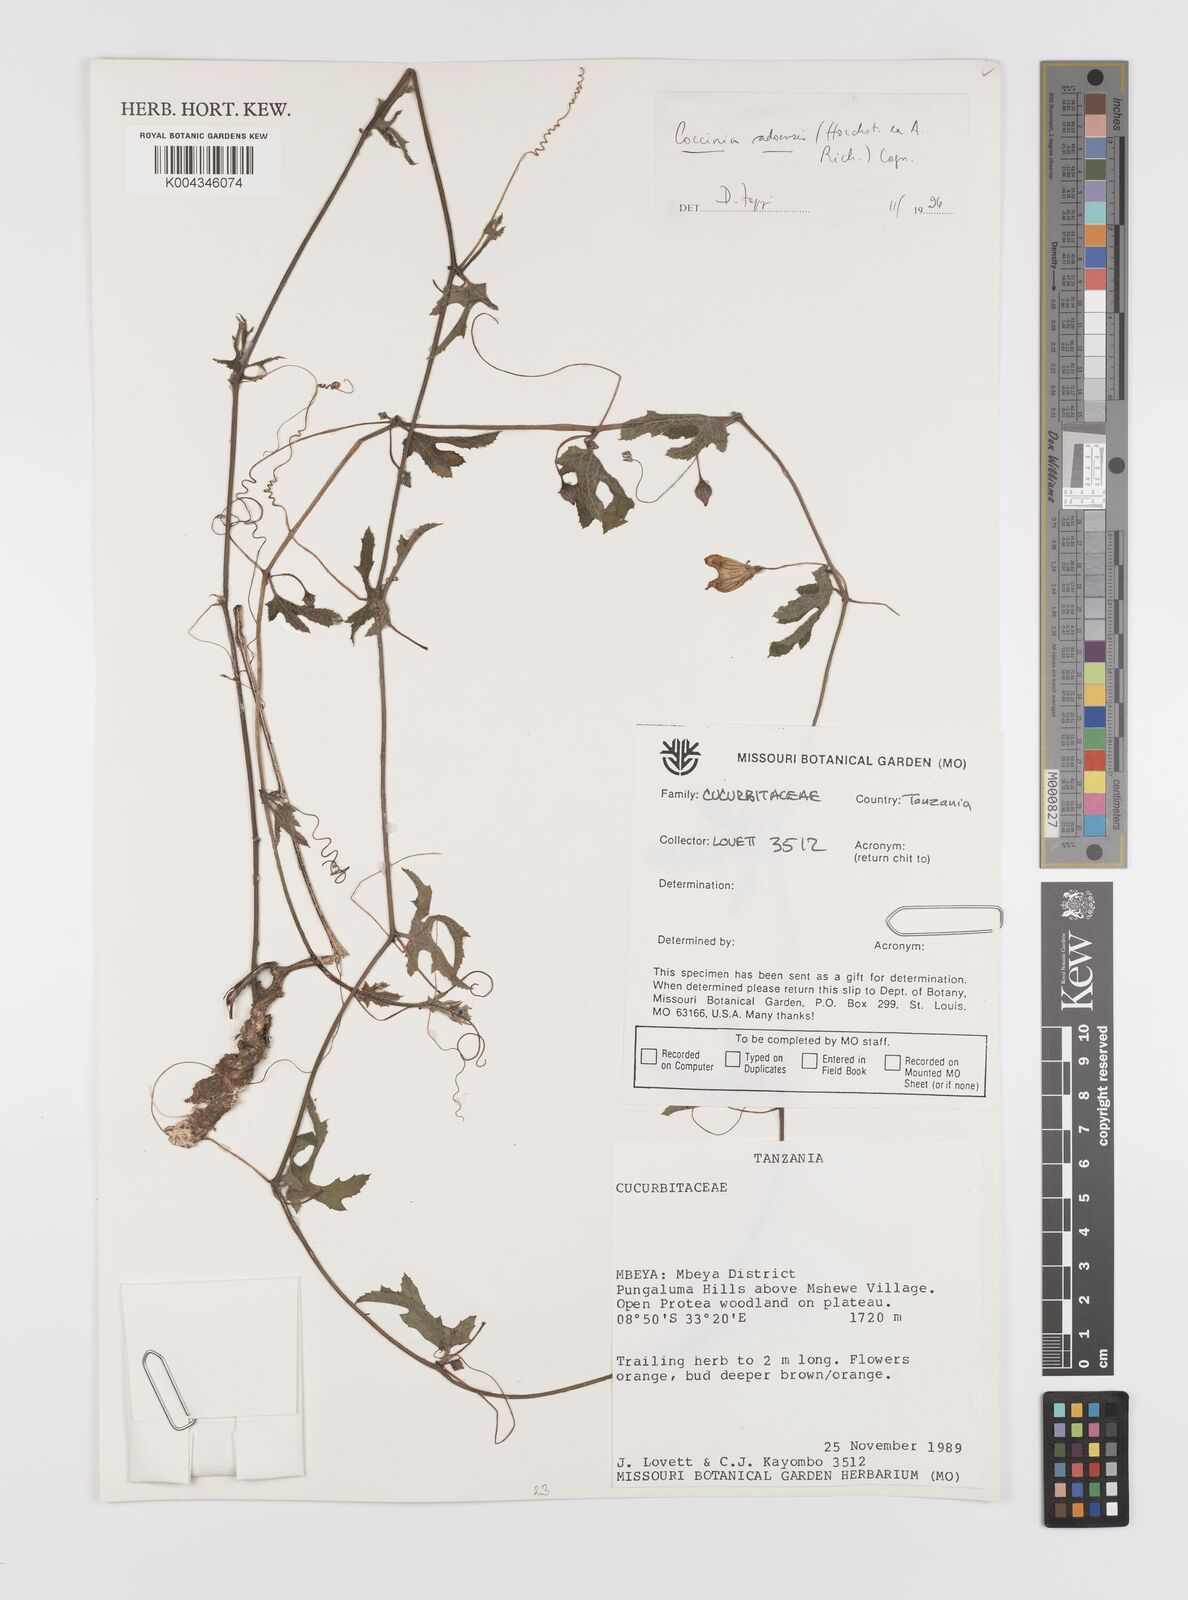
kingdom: Plantae
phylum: Tracheophyta
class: Magnoliopsida
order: Cucurbitales
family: Cucurbitaceae
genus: Coccinia
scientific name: Coccinia adoensis
